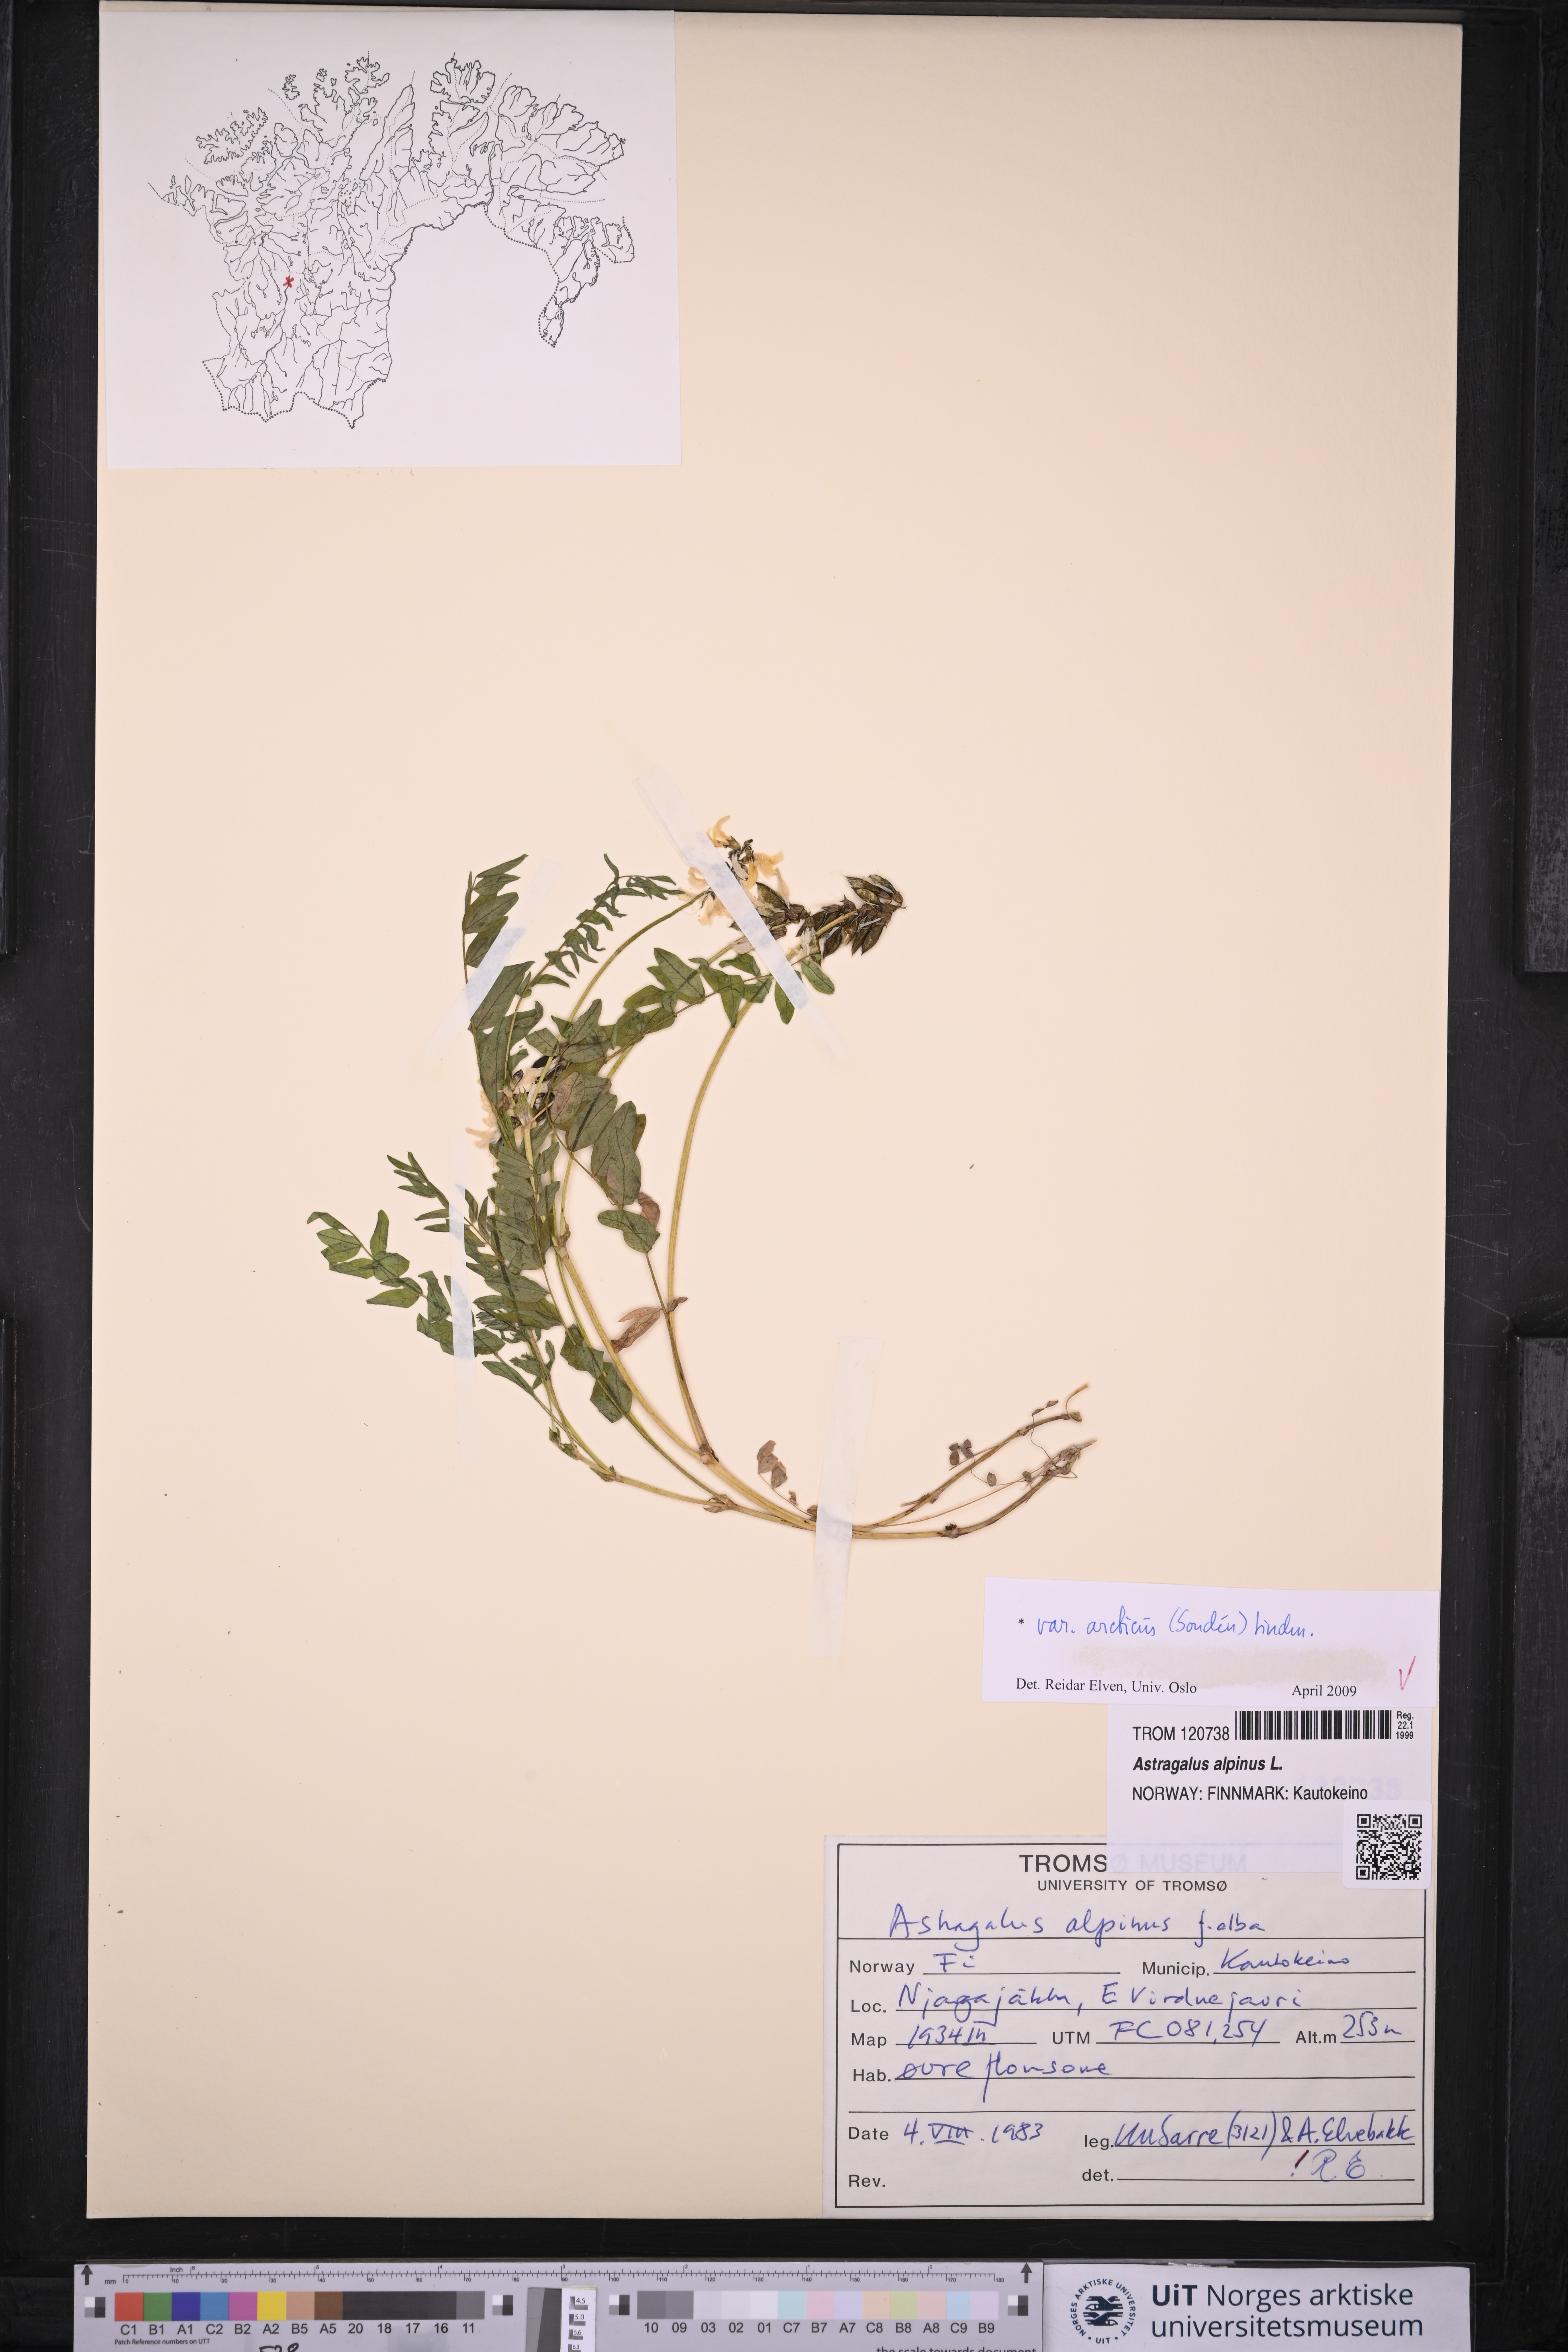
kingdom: Plantae
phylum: Tracheophyta
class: Magnoliopsida
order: Fabales
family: Fabaceae
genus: Astragalus
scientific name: Astragalus norvegicus
